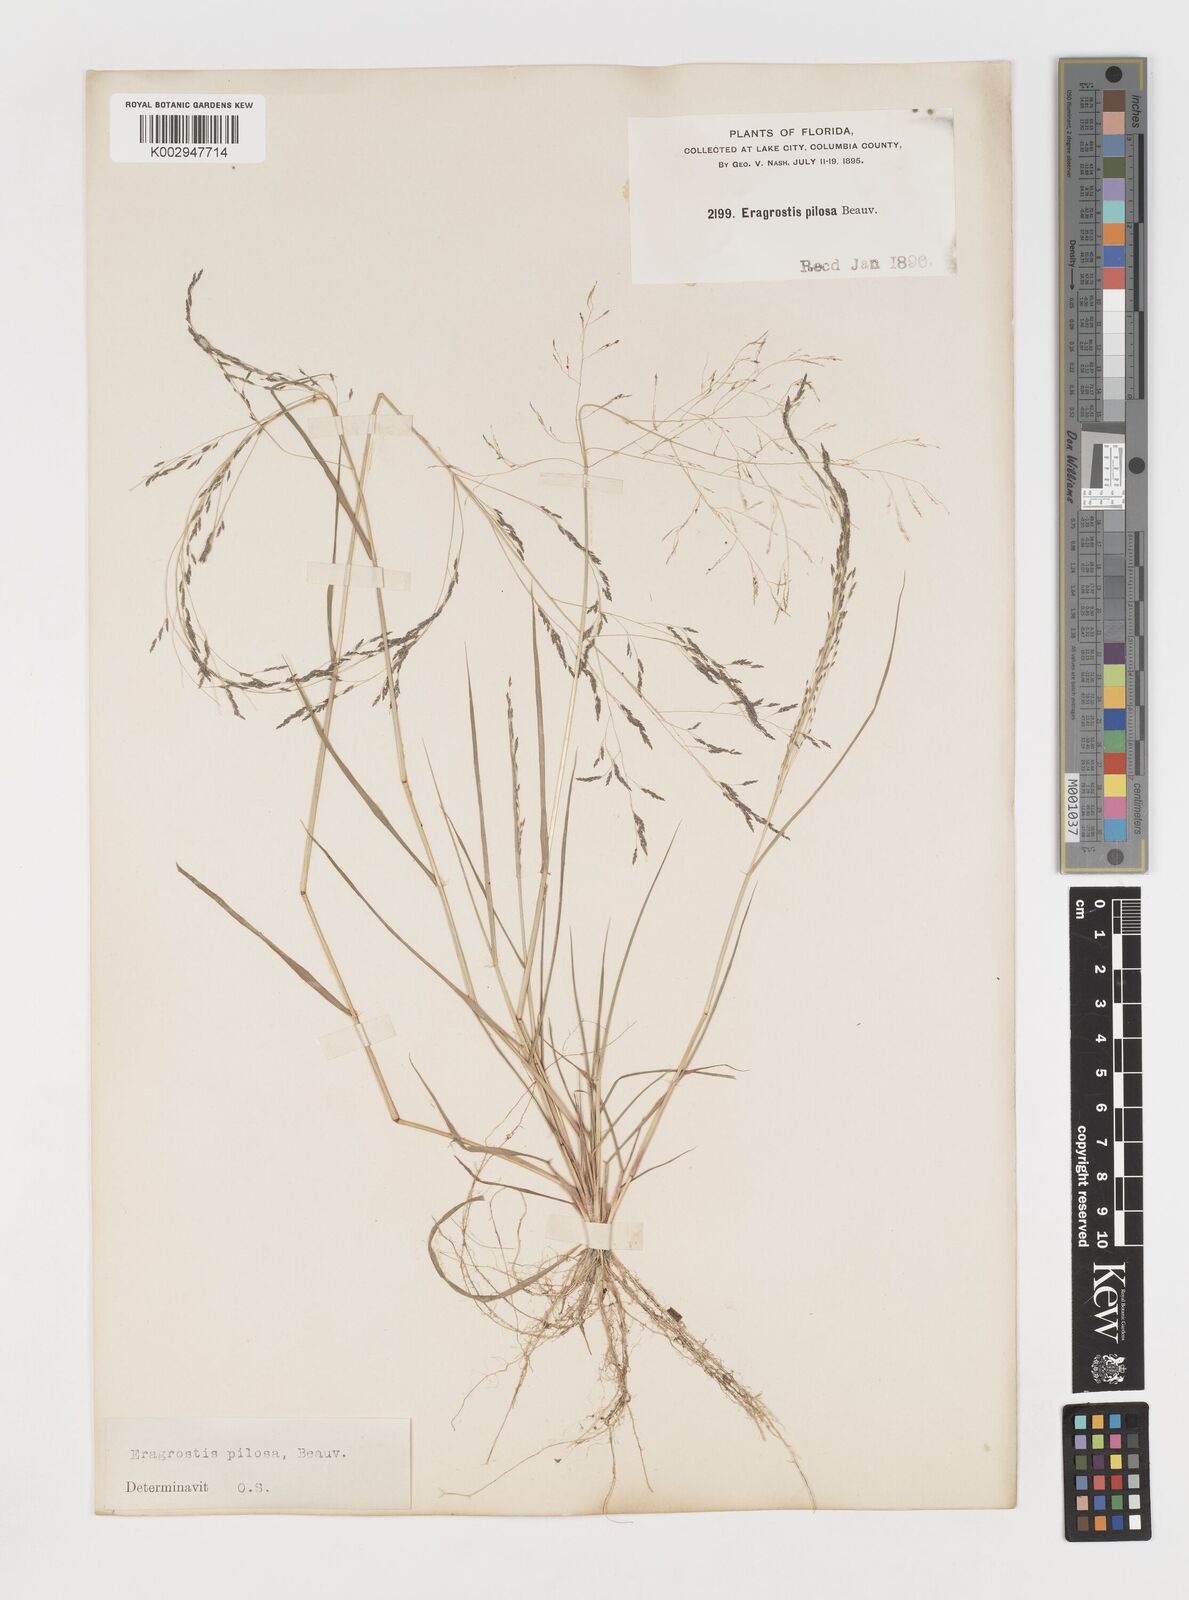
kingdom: Plantae
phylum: Tracheophyta
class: Liliopsida
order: Poales
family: Poaceae
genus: Eragrostis
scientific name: Eragrostis pilosa
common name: Indian lovegrass
